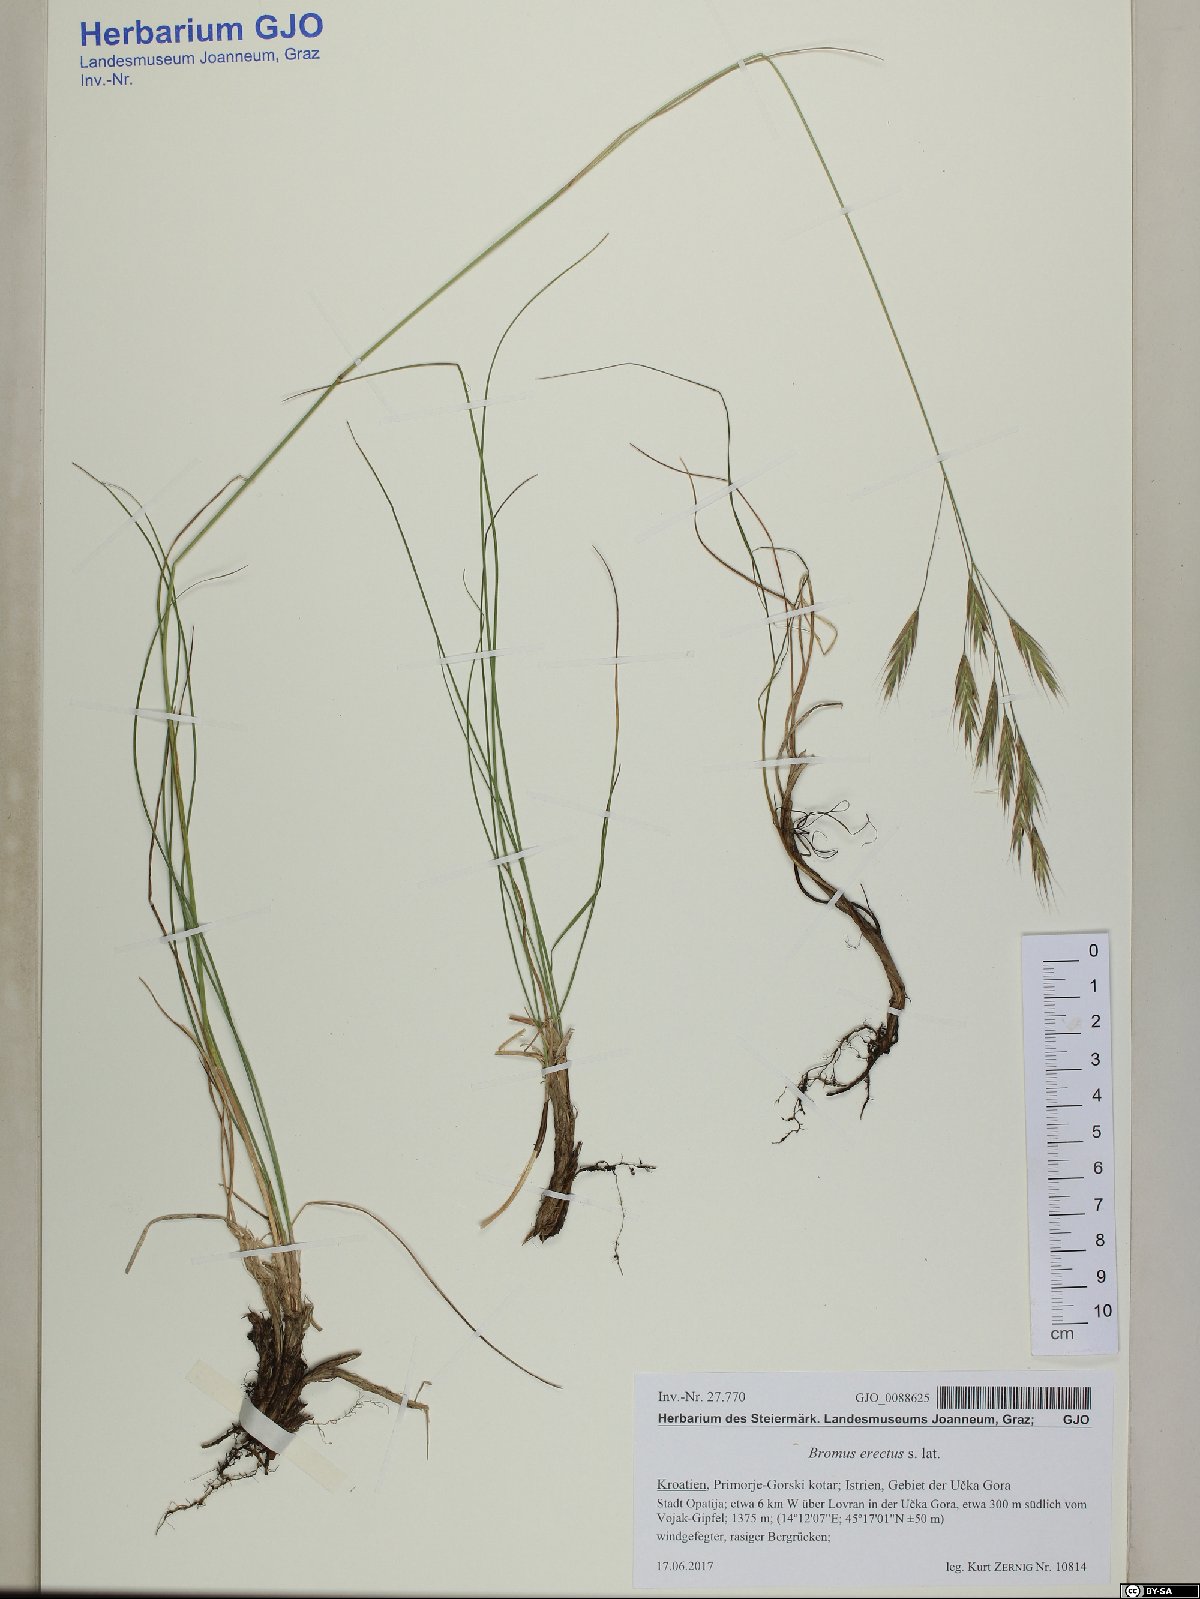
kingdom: Plantae
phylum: Tracheophyta
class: Liliopsida
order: Poales
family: Poaceae
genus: Bromus
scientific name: Bromus erectus
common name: Erect brome
